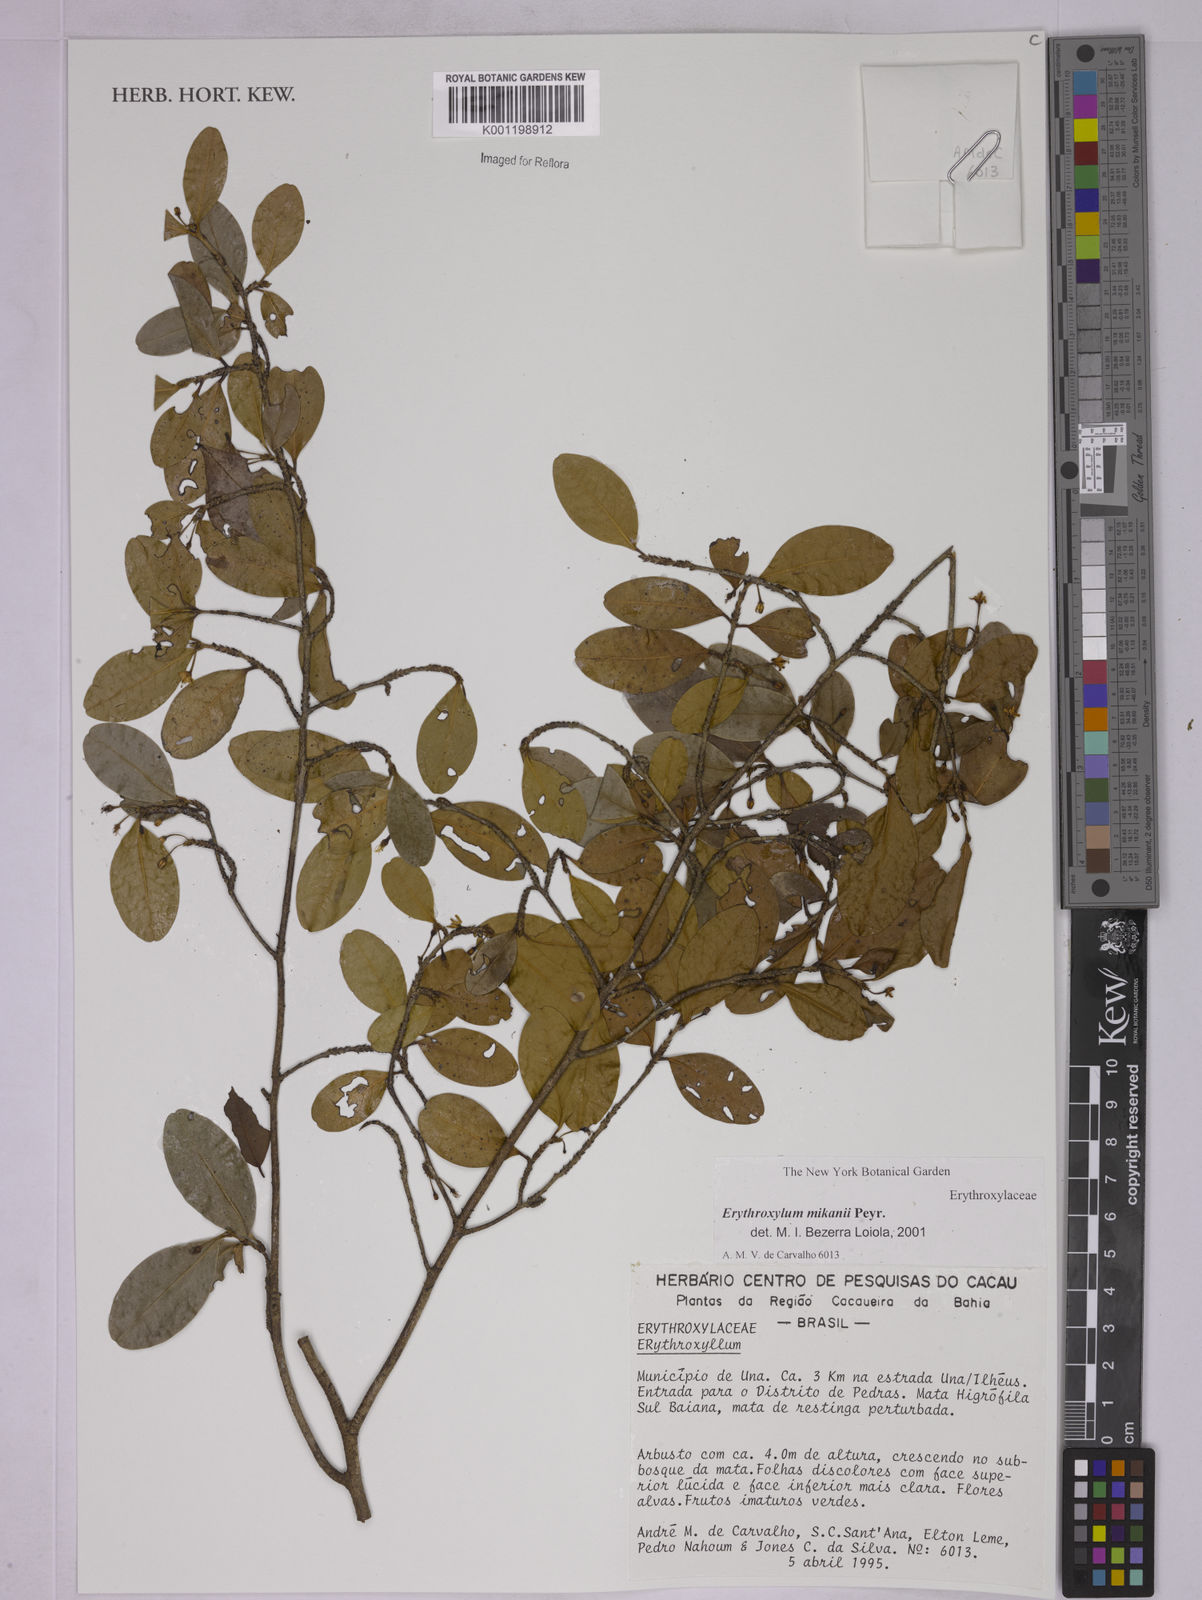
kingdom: Plantae
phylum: Tracheophyta
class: Magnoliopsida
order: Malpighiales
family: Erythroxylaceae
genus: Erythroxylum
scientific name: Erythroxylum mikanii
